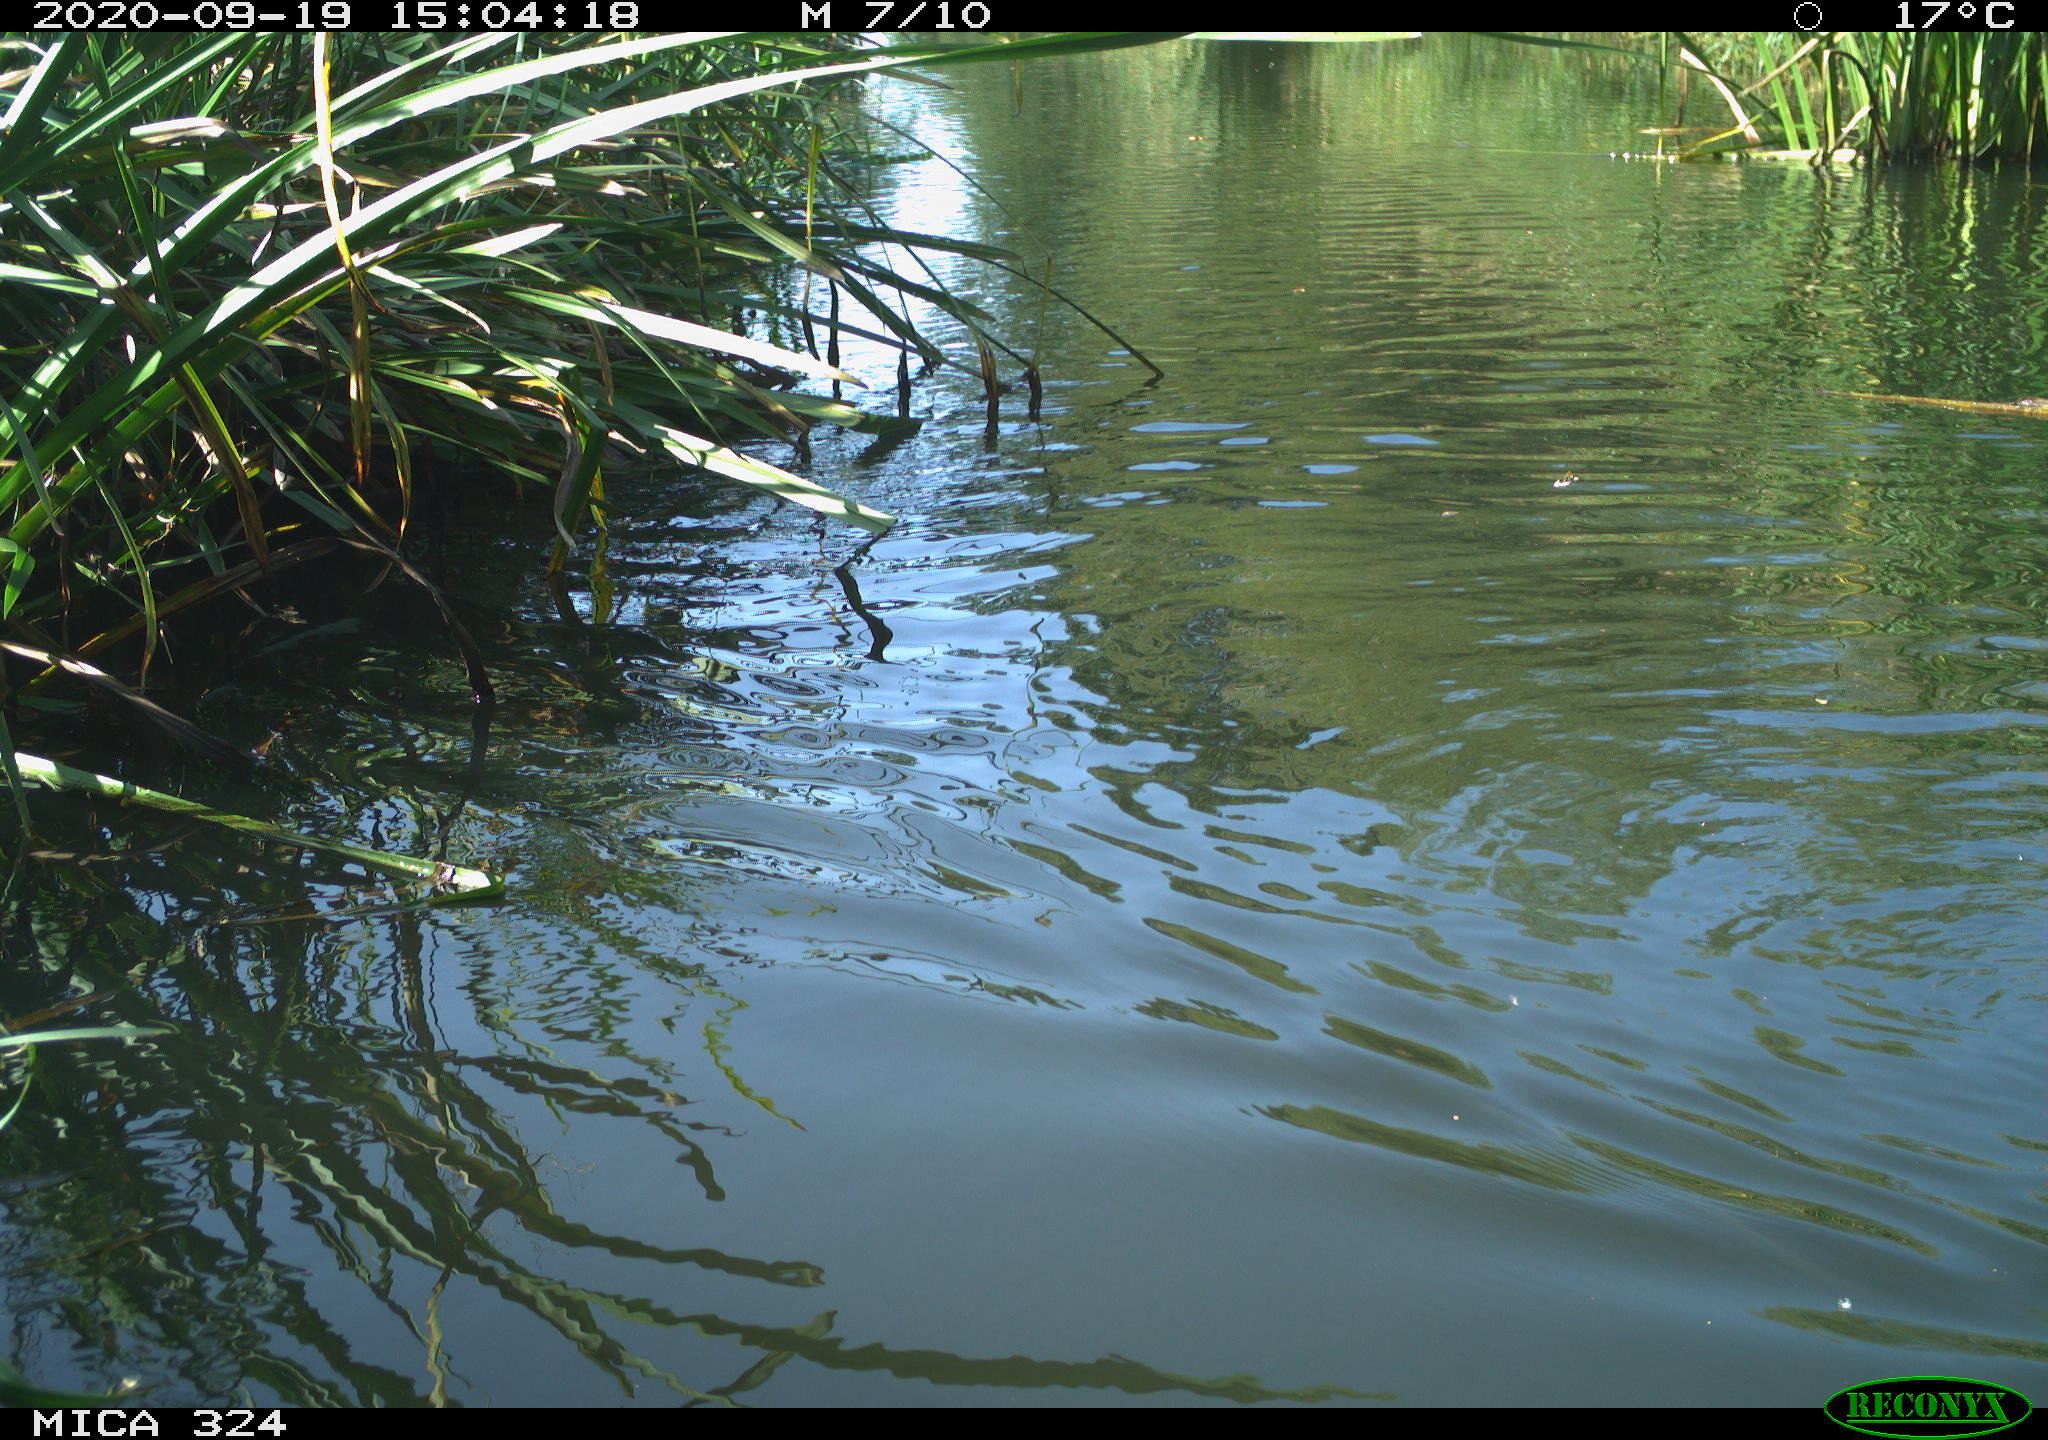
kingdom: Animalia
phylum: Chordata
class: Mammalia
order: Rodentia
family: Cricetidae
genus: Ondatra
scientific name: Ondatra zibethicus
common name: Muskrat
